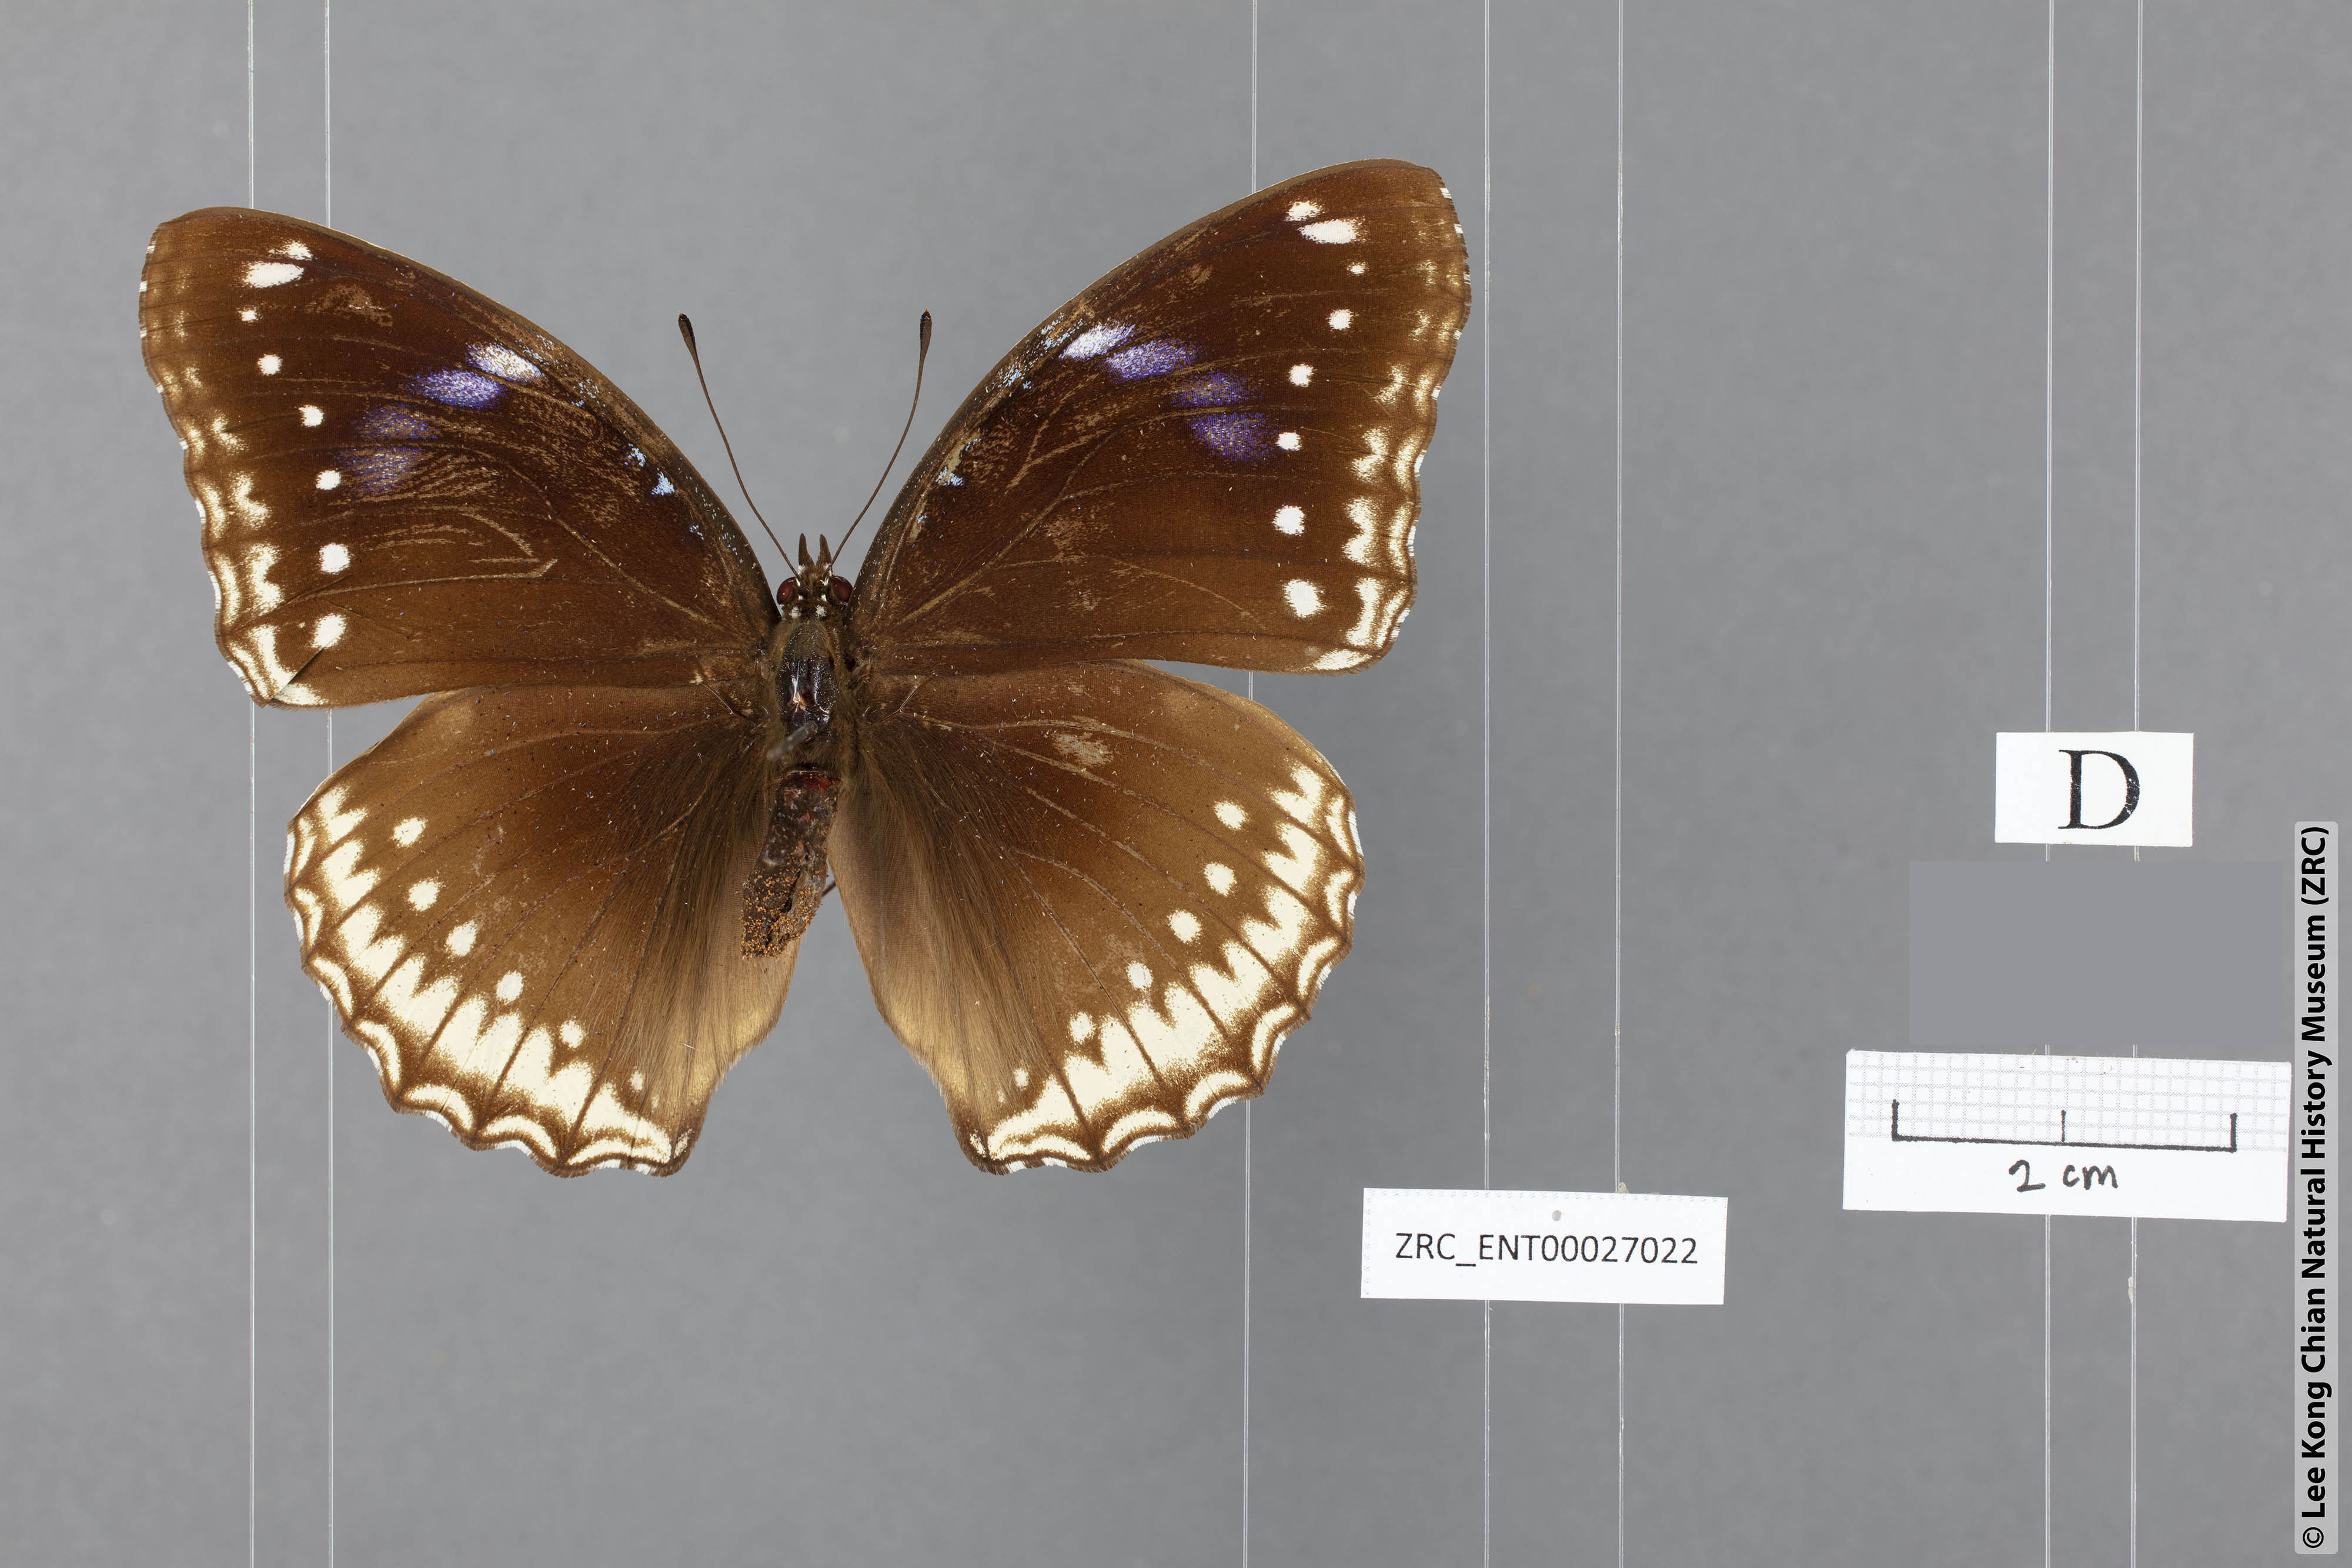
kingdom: Animalia
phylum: Arthropoda
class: Insecta
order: Lepidoptera
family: Nymphalidae
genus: Hypolimnas
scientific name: Hypolimnas bolina
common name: Great eggfly
